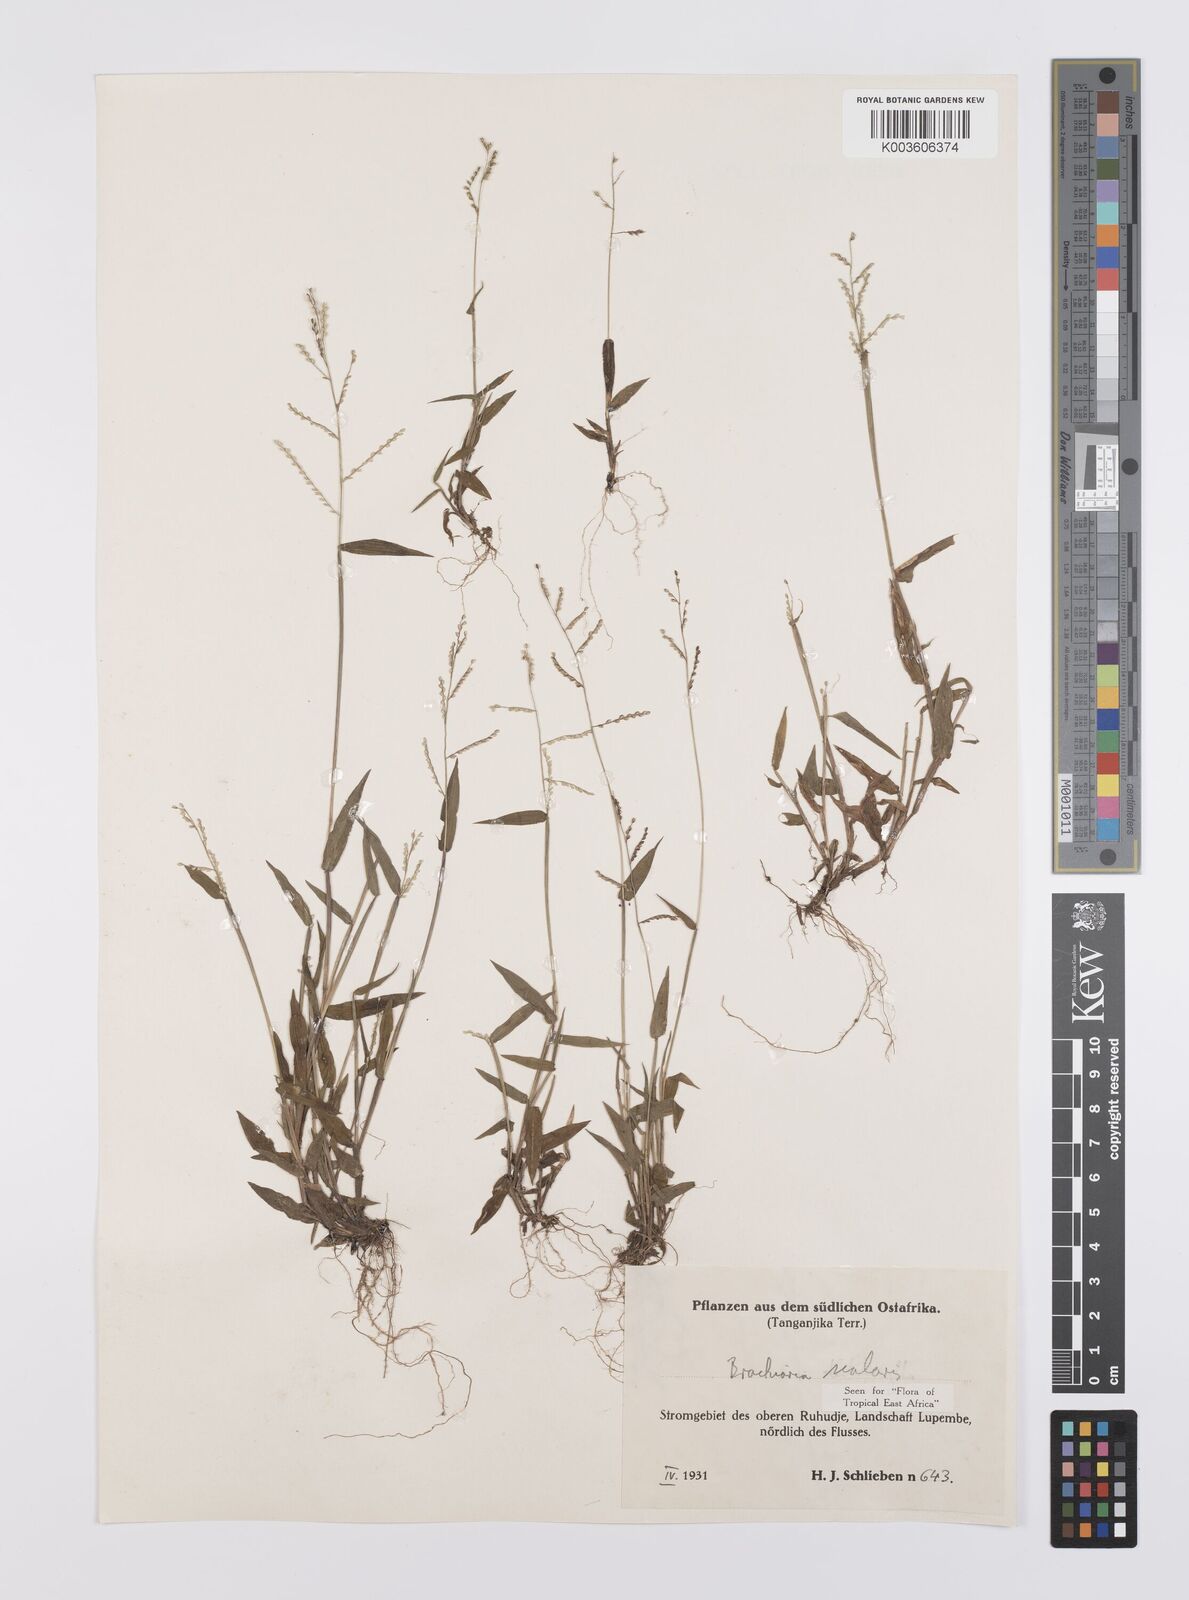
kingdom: Plantae
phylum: Tracheophyta
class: Liliopsida
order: Poales
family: Poaceae
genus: Urochloa
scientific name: Urochloa comata
